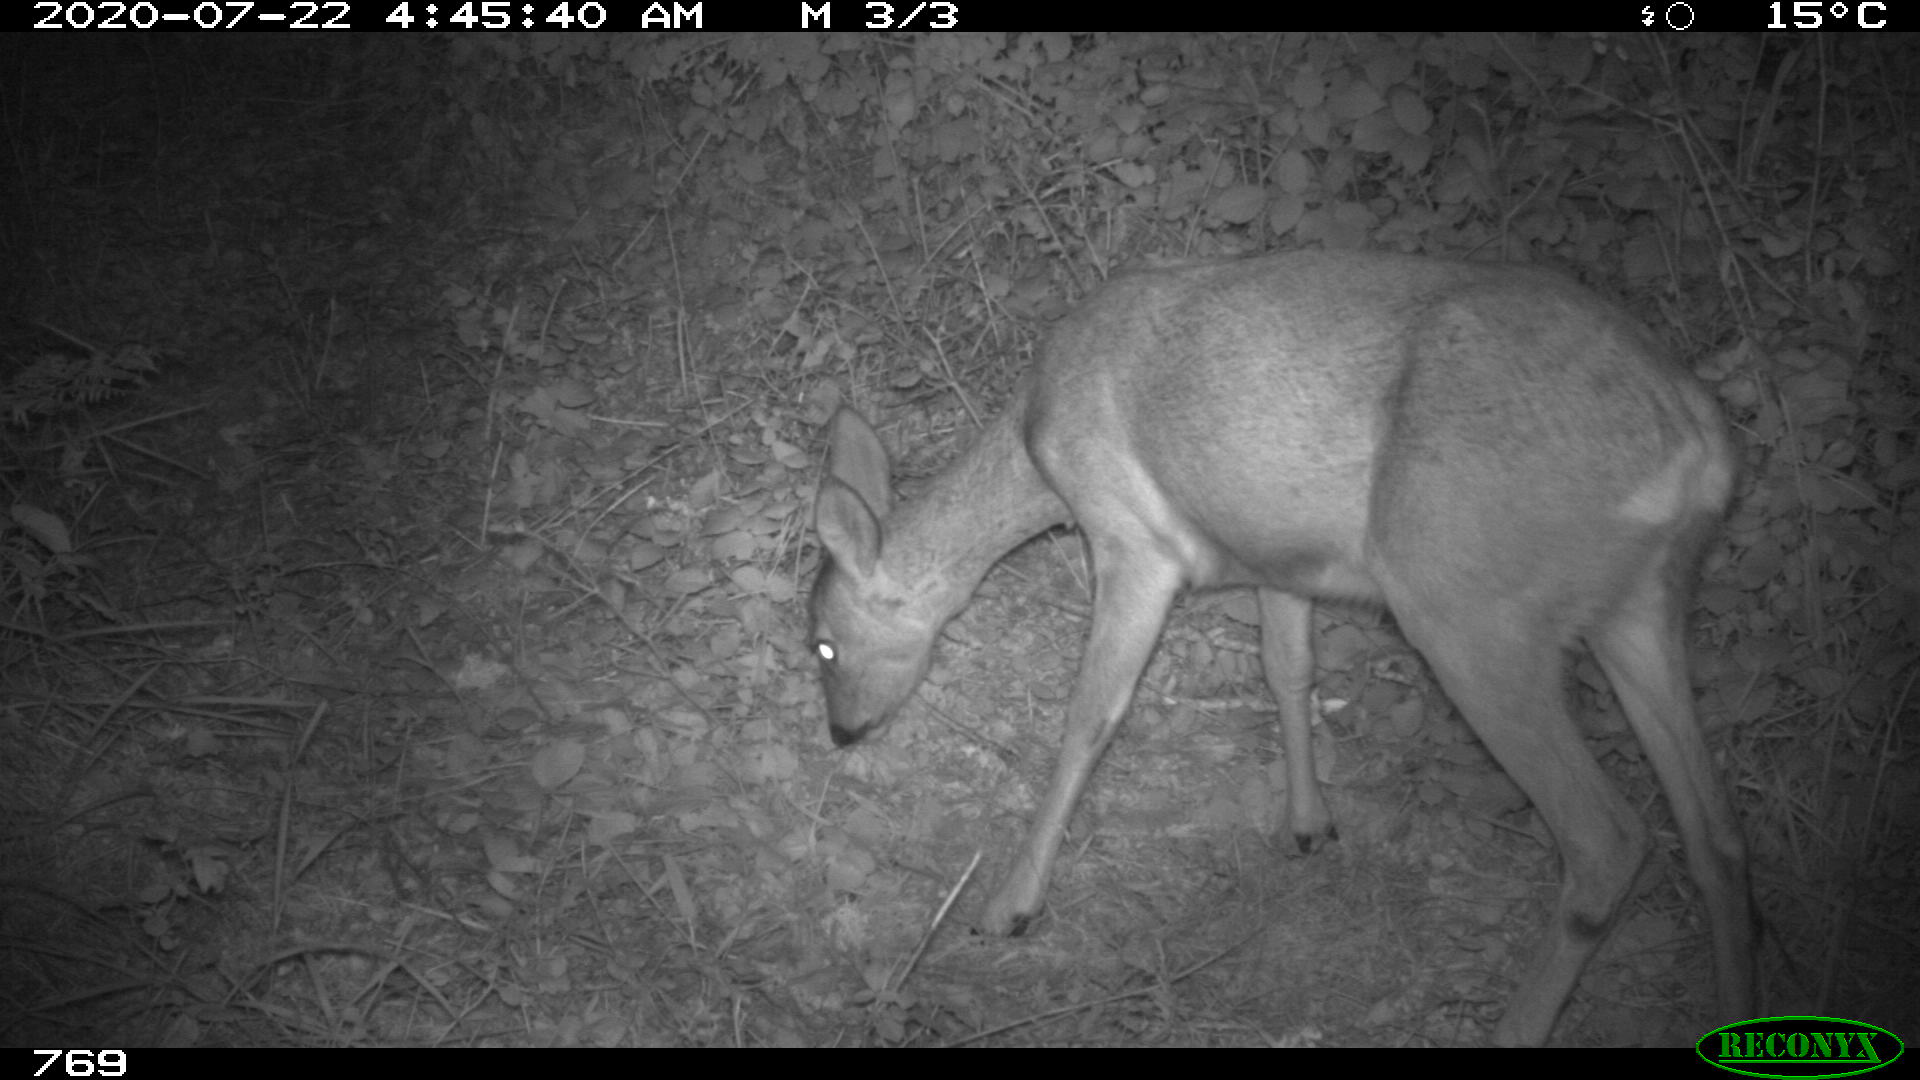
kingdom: Animalia
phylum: Chordata
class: Mammalia
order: Artiodactyla
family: Cervidae
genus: Capreolus
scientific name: Capreolus capreolus
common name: Western roe deer
